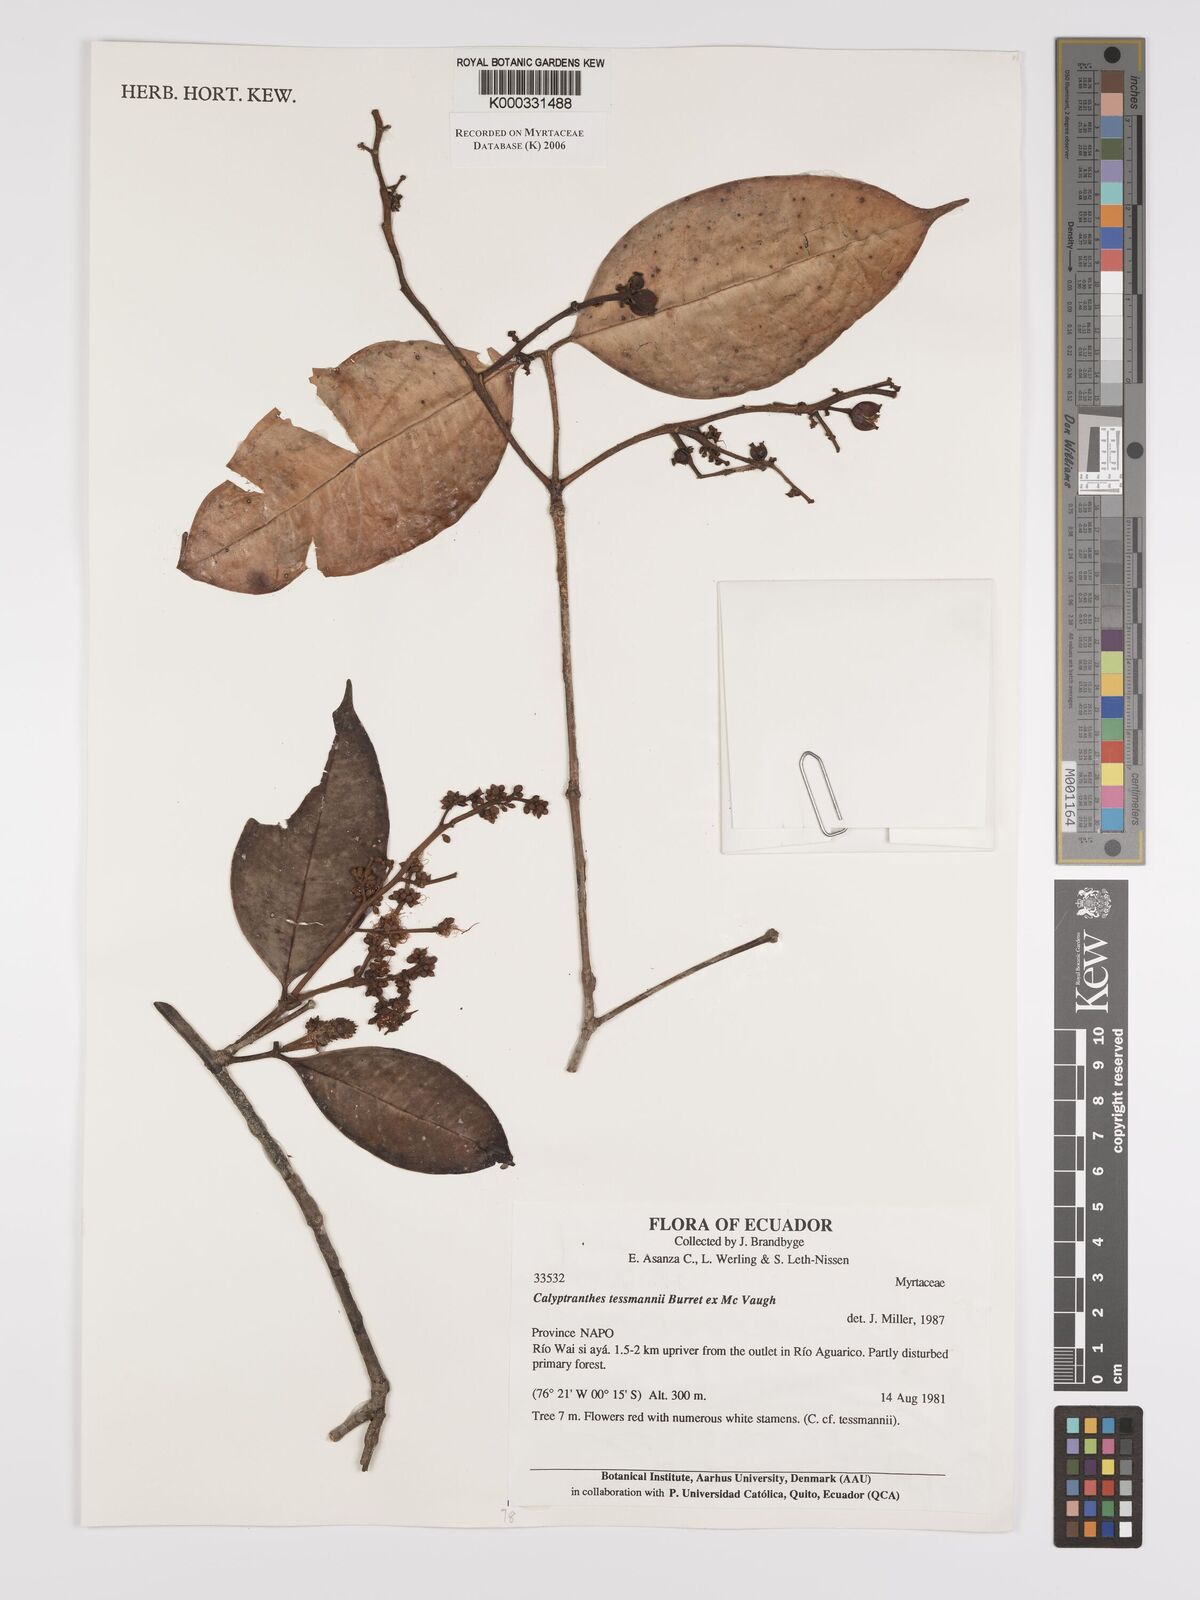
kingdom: Plantae
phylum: Tracheophyta
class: Magnoliopsida
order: Myrtales
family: Myrtaceae
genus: Myrcia
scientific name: Myrcia tessmannii
